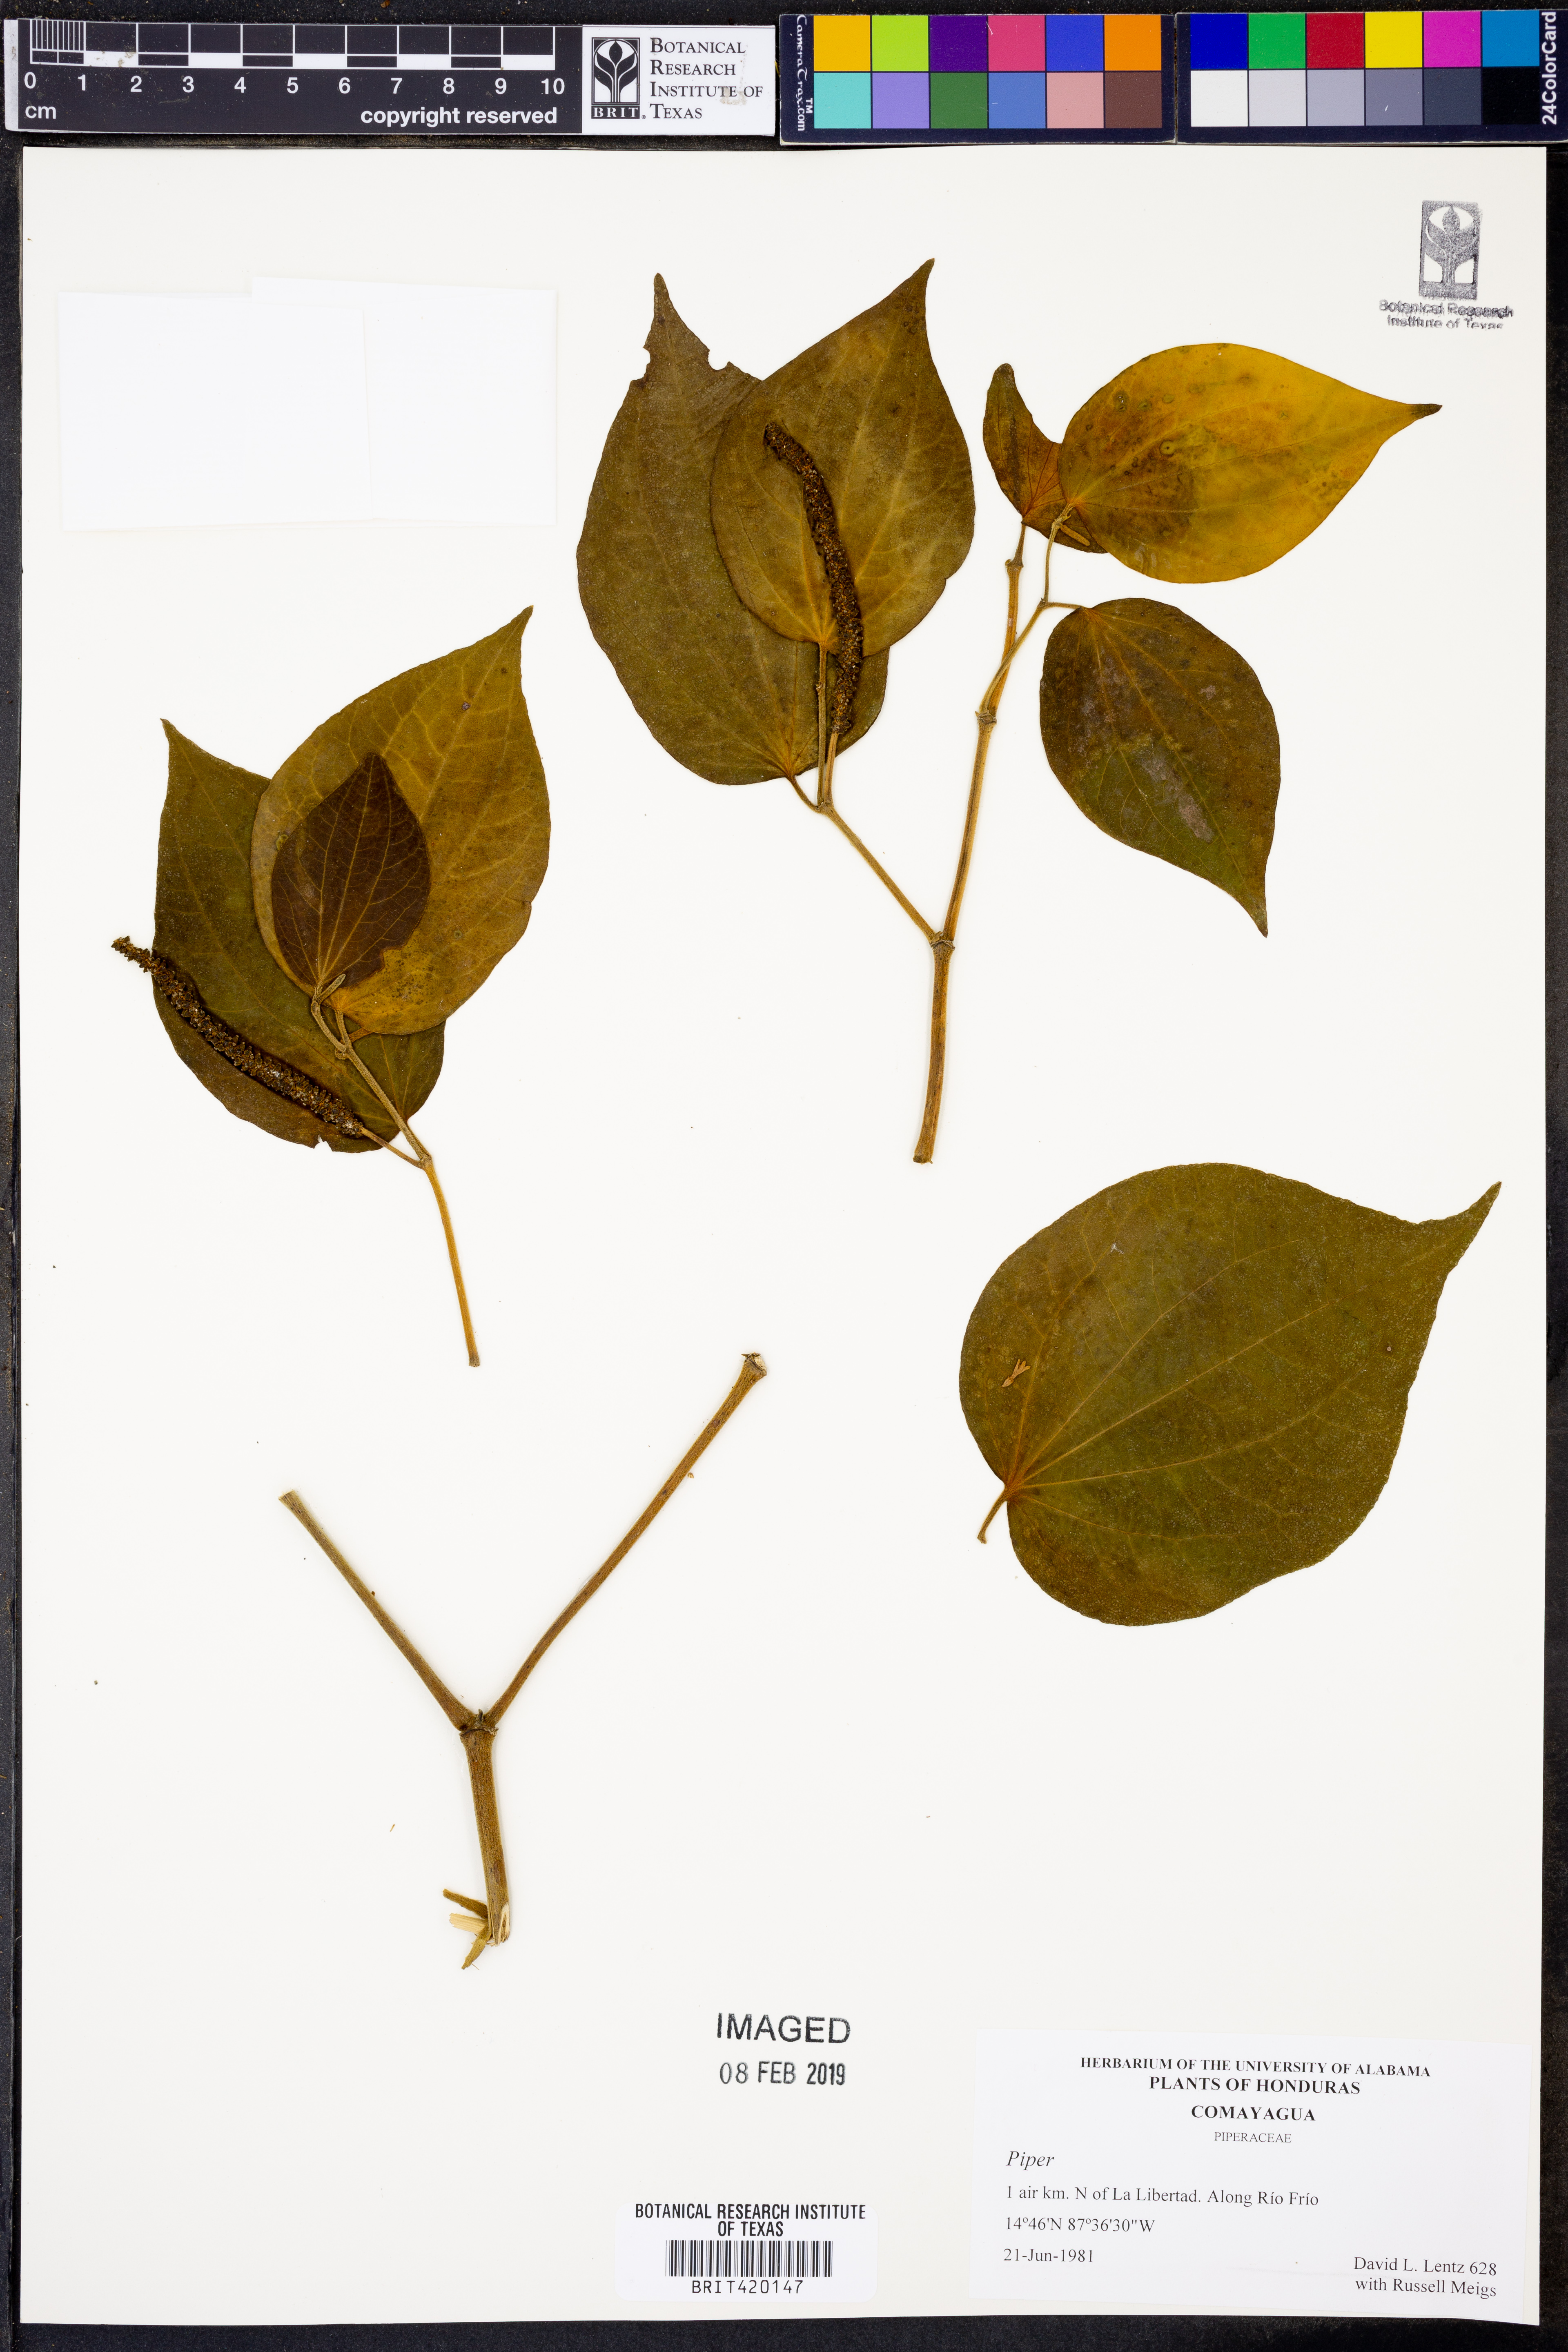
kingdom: Plantae
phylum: Tracheophyta
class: Magnoliopsida
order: Piperales
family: Piperaceae
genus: Piper
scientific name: Piper
